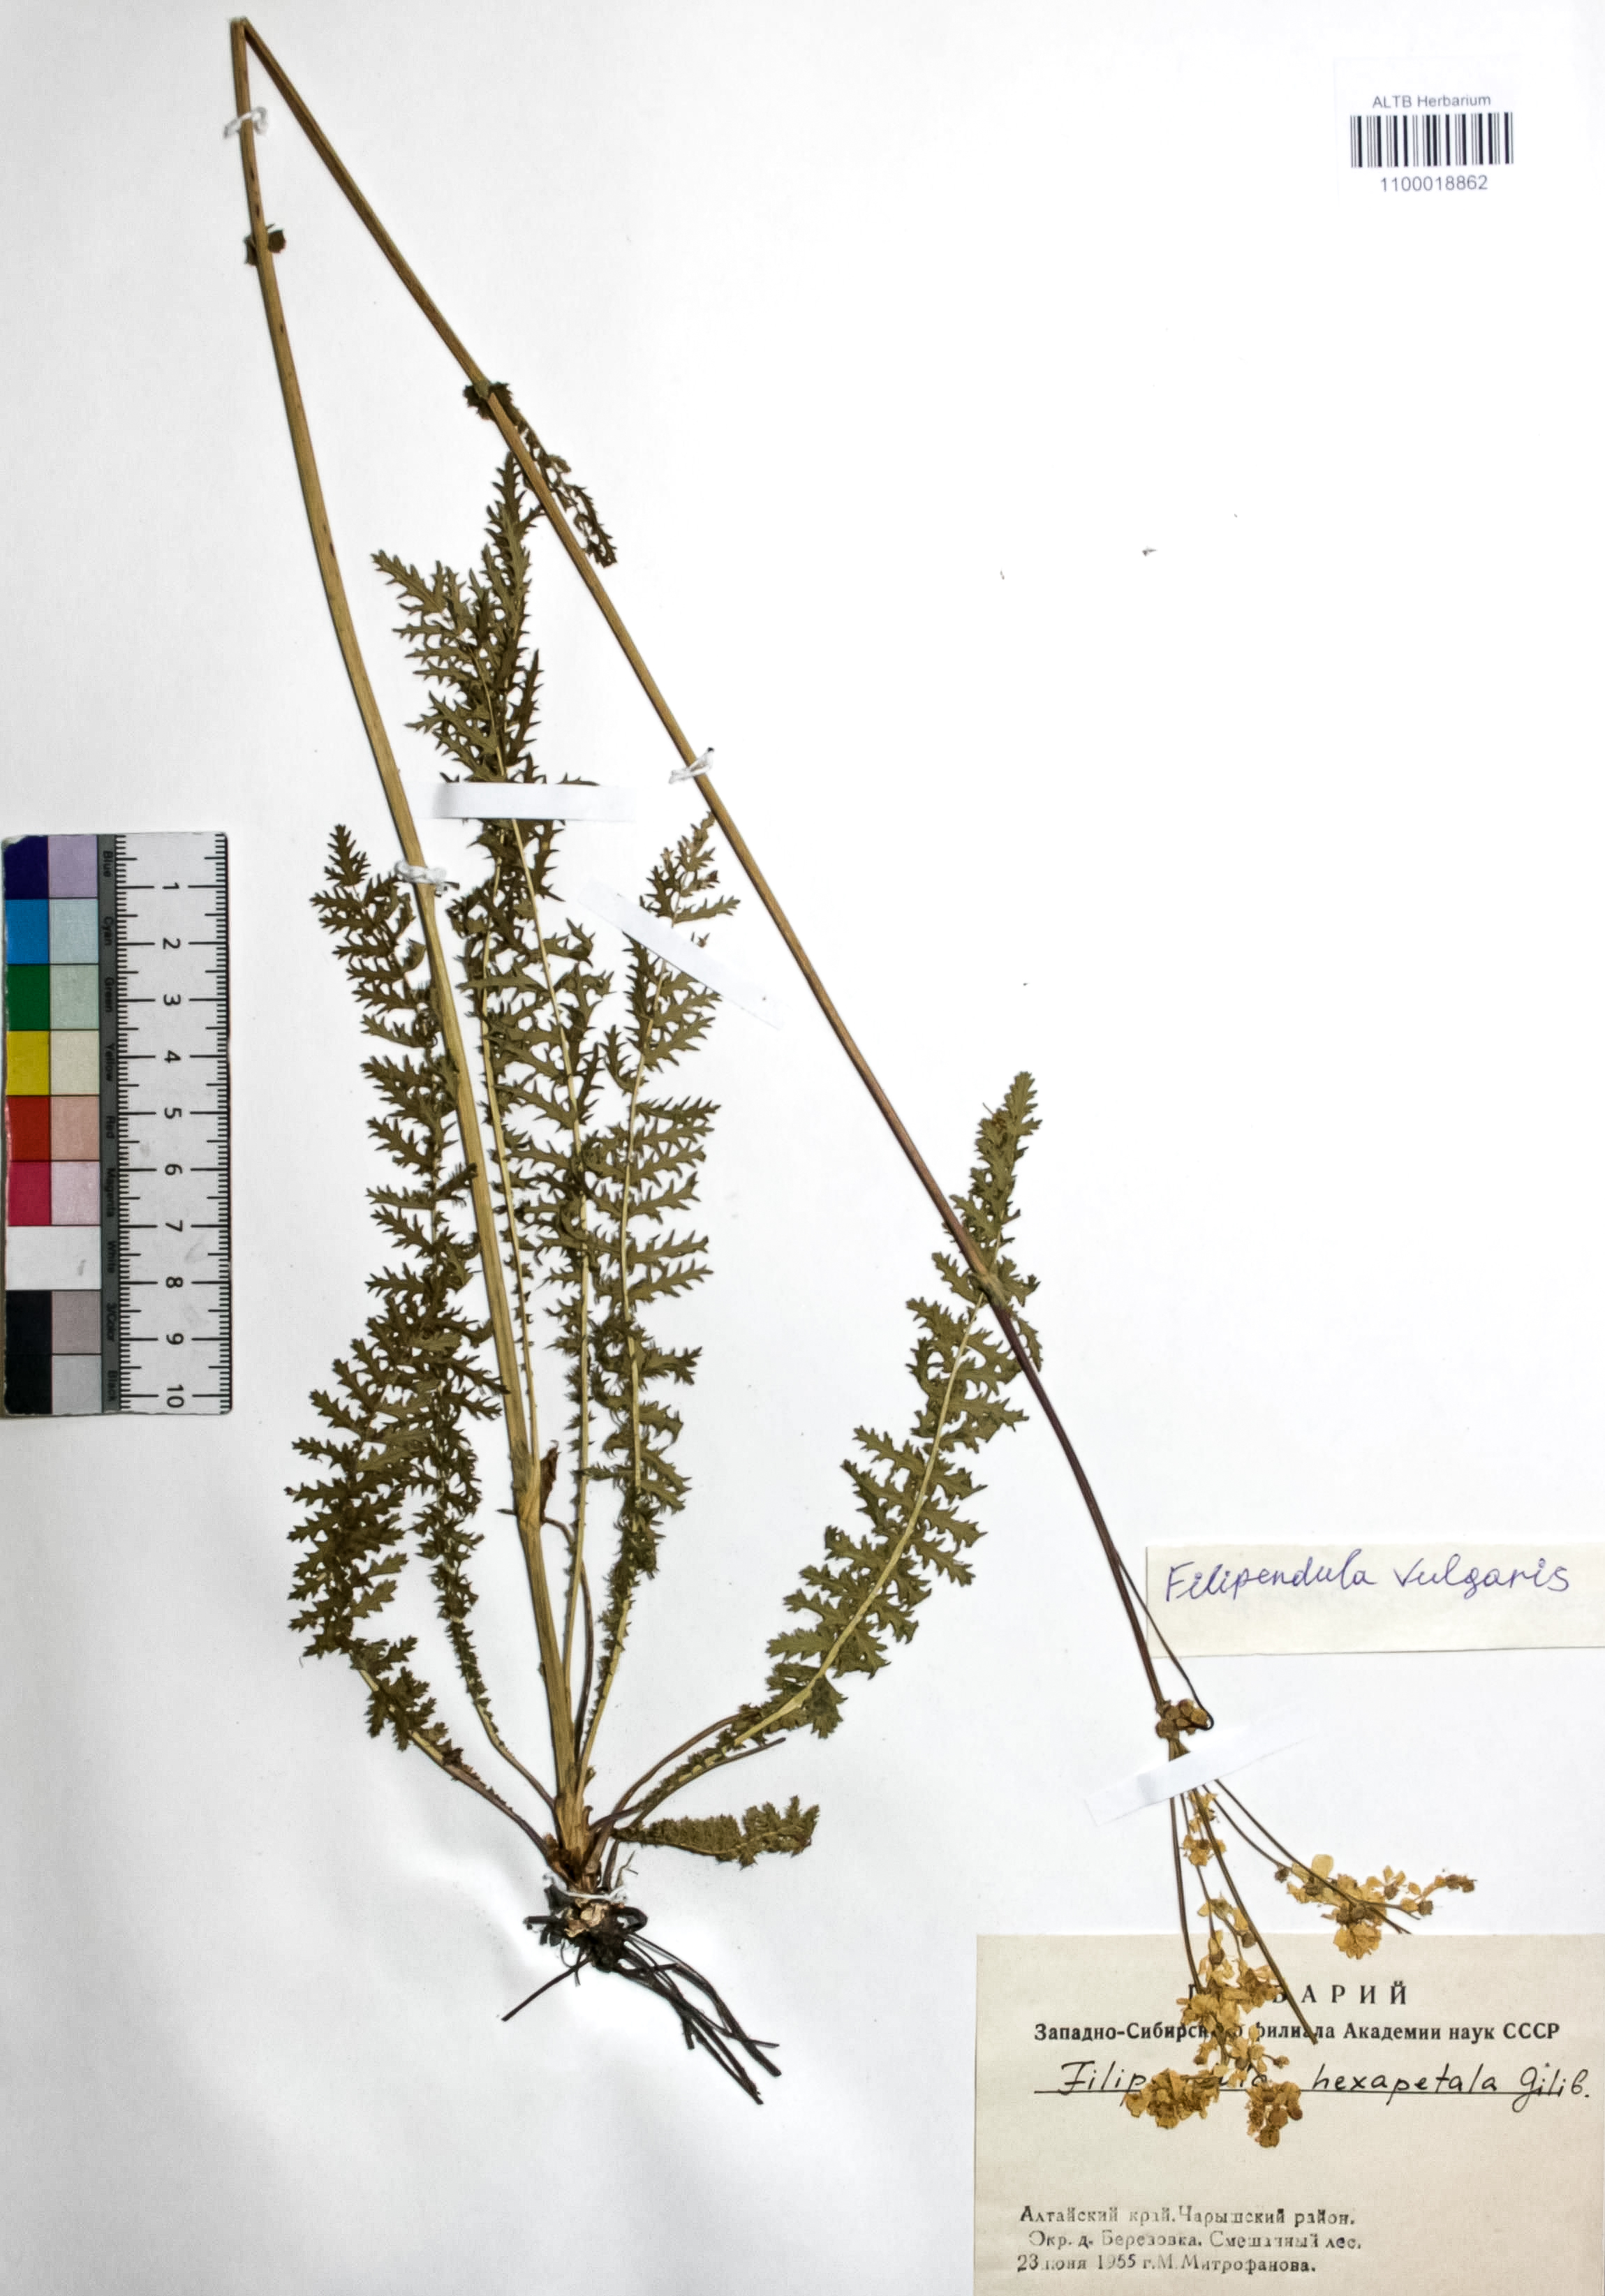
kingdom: Plantae
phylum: Tracheophyta
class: Magnoliopsida
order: Rosales
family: Rosaceae
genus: Filipendula
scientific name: Filipendula vulgaris
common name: Dropwort
